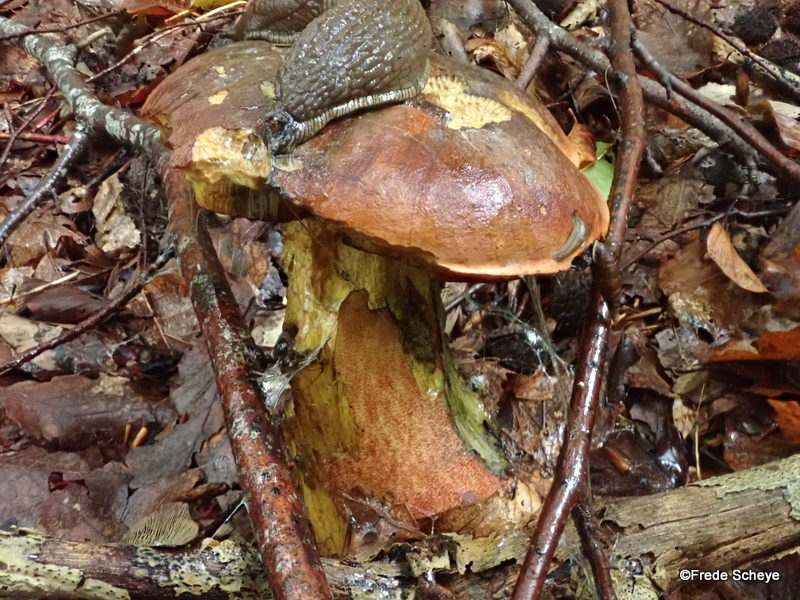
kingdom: Fungi
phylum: Basidiomycota
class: Agaricomycetes
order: Boletales
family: Boletaceae
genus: Neoboletus
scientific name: Neoboletus erythropus
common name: punktstokket indigorørhat
